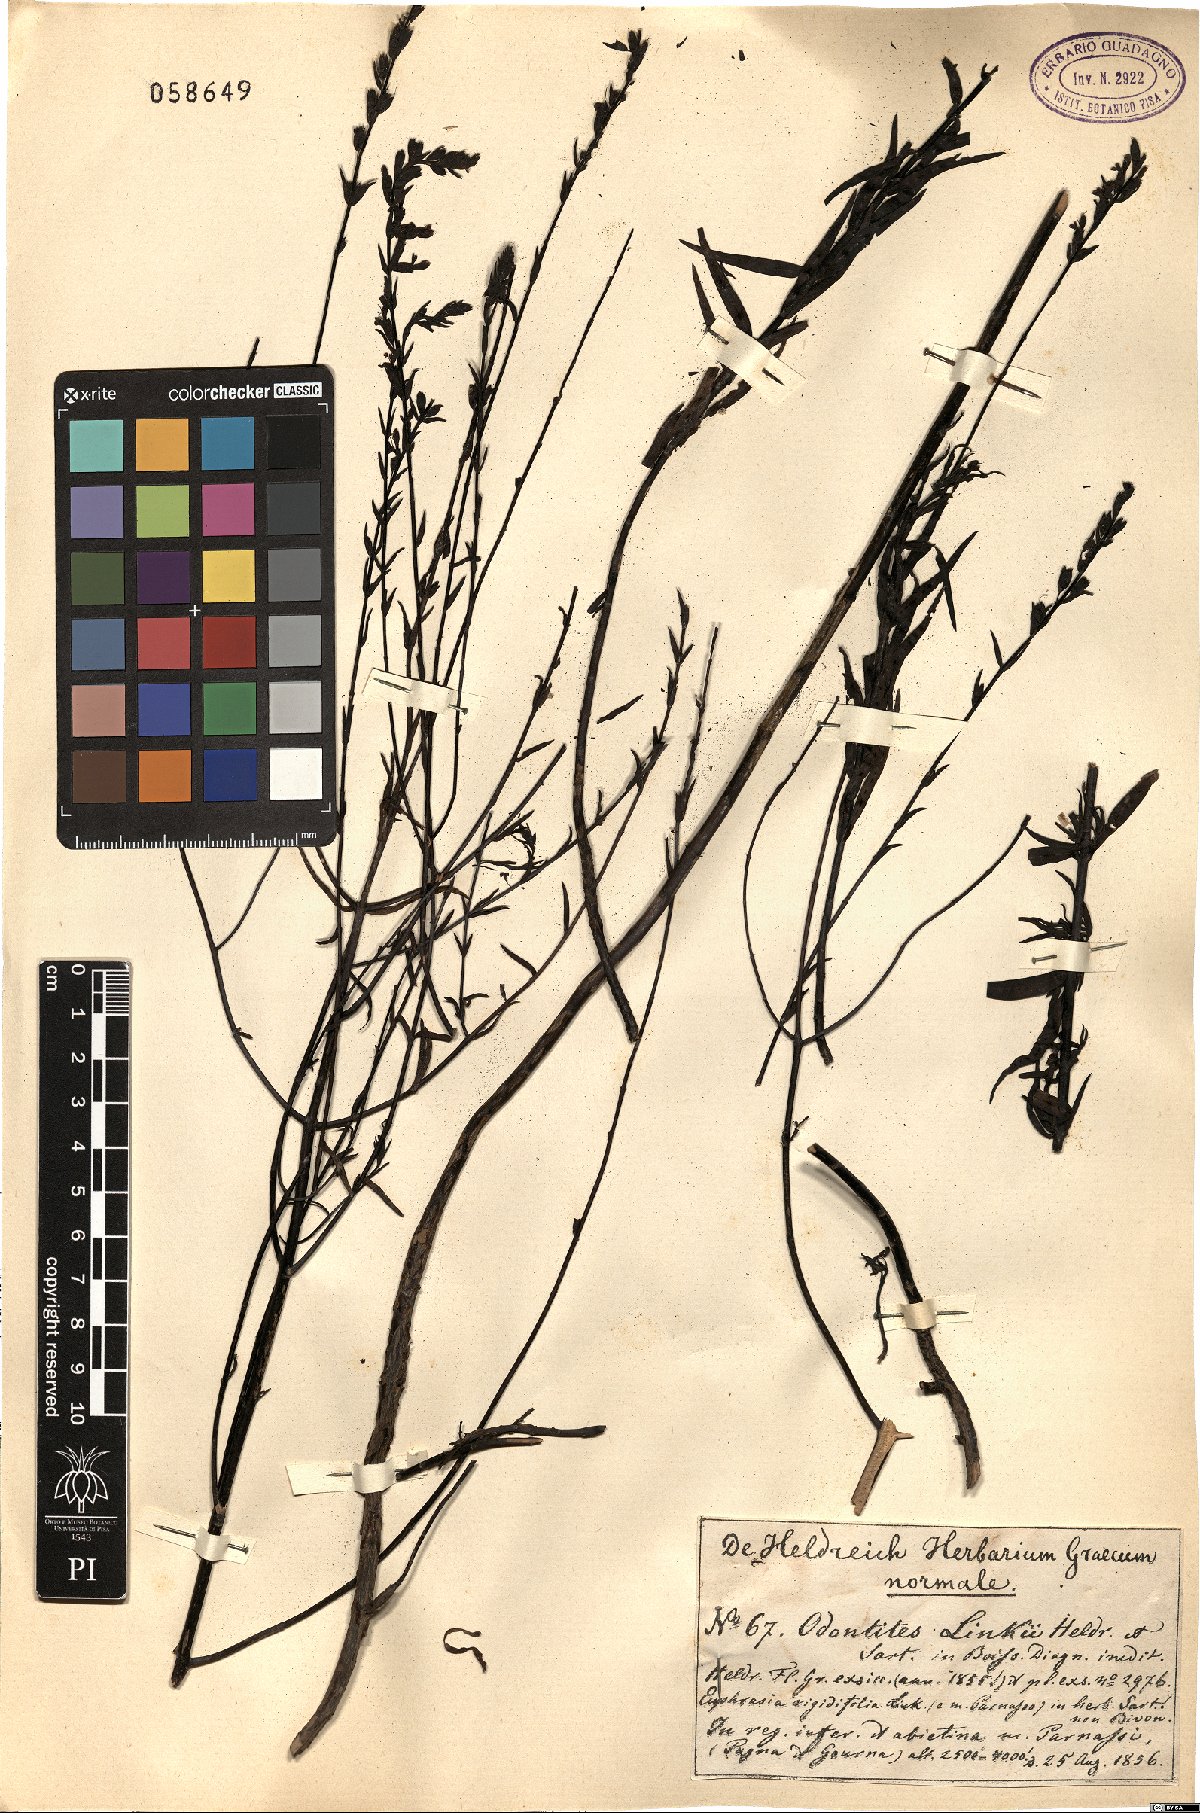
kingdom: Plantae
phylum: Tracheophyta
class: Magnoliopsida
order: Lamiales
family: Scrophulariaceae
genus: Odontites
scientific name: Odontites linkii
